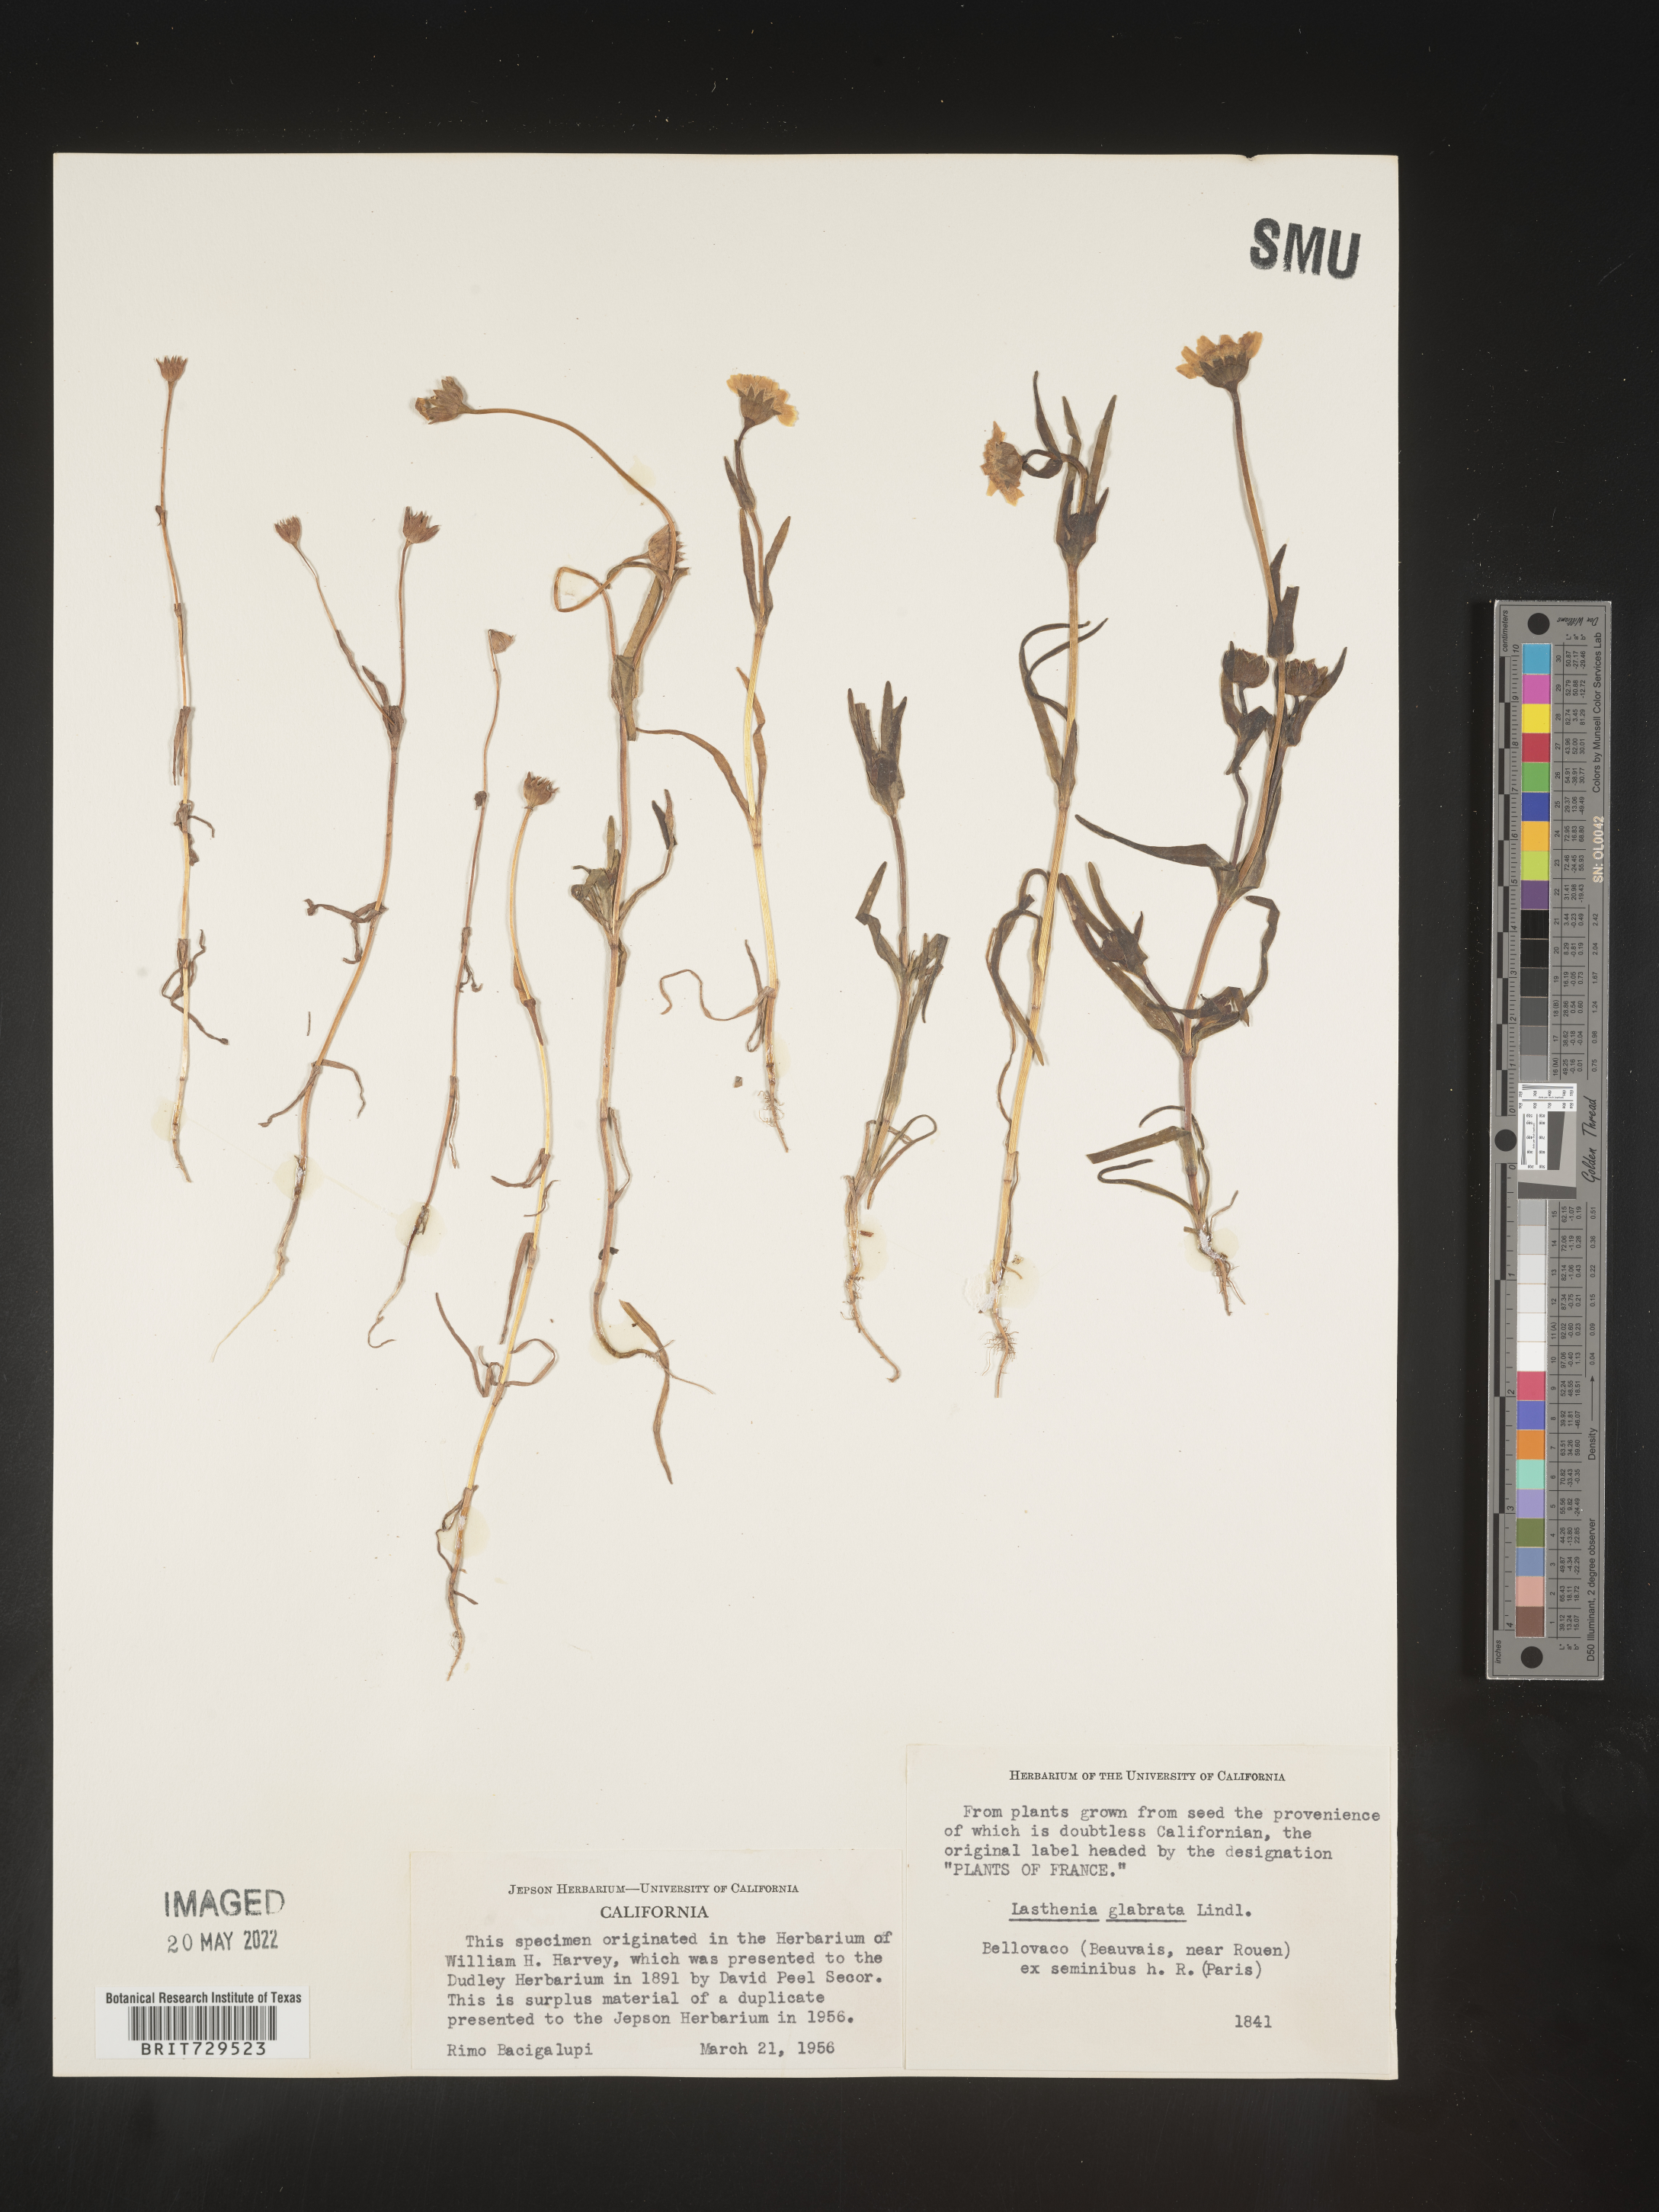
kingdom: Plantae
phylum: Tracheophyta
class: Magnoliopsida
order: Asterales
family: Asteraceae
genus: Lasthenia
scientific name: Lasthenia
